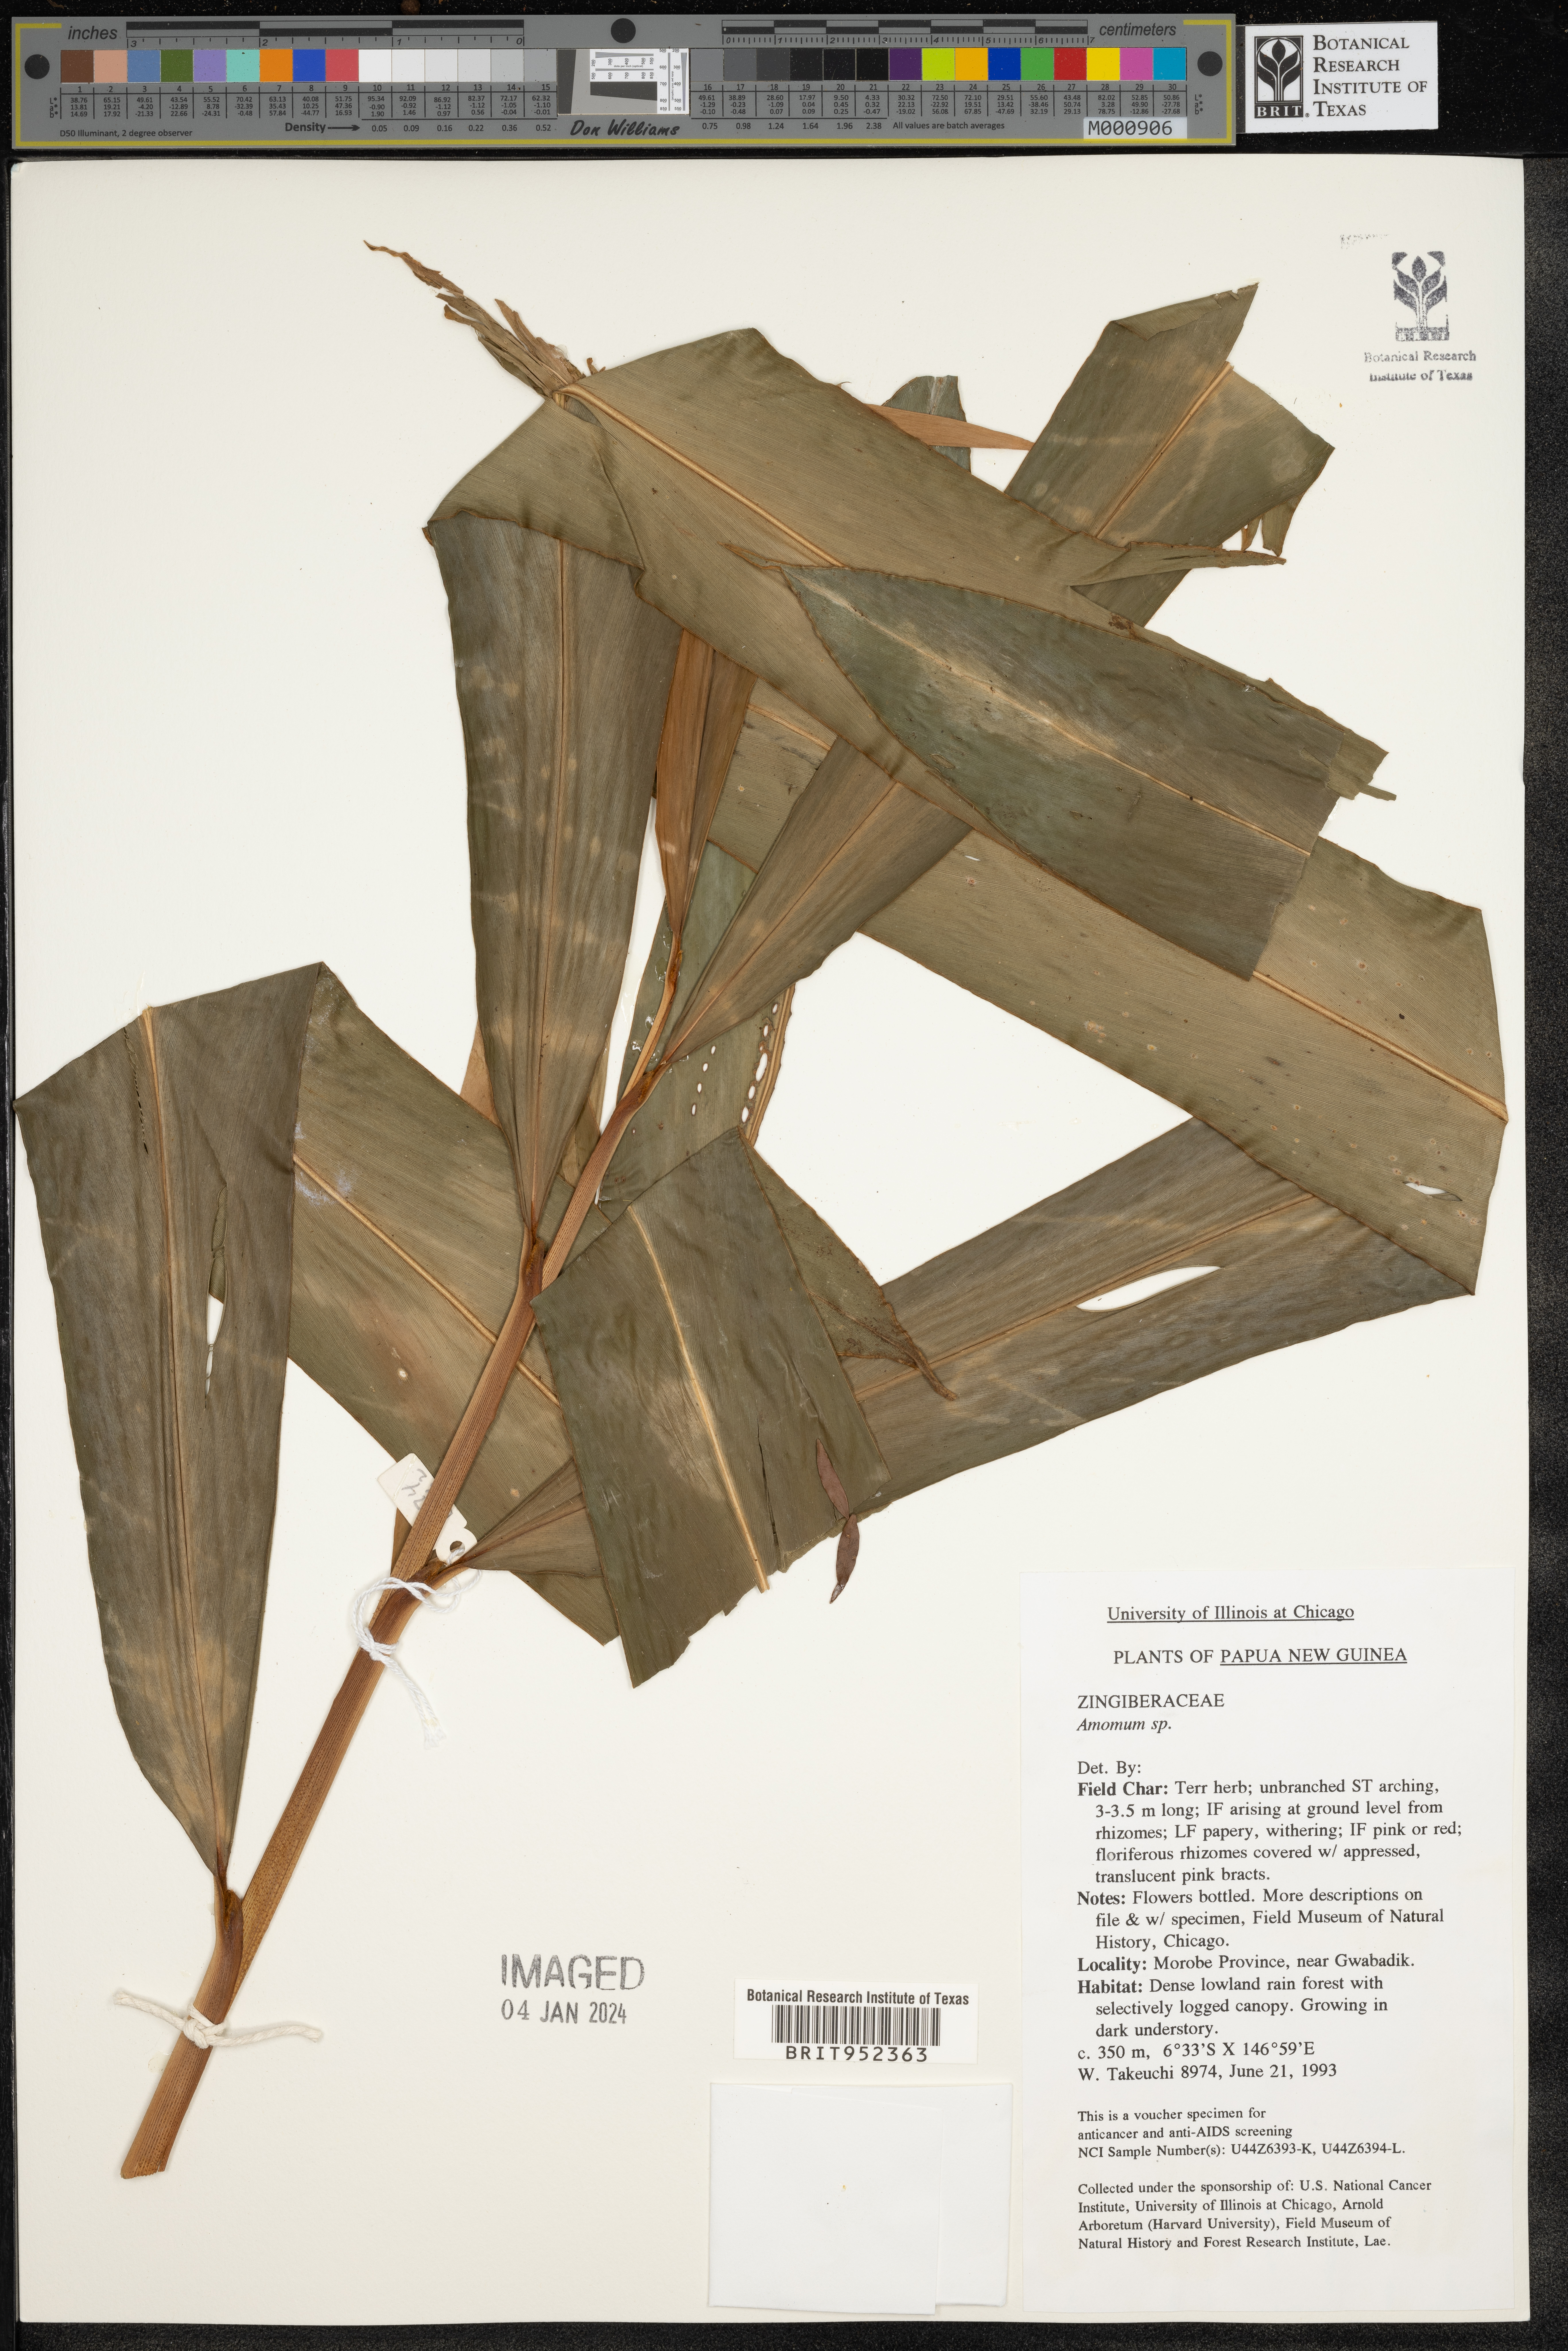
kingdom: Plantae
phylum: Tracheophyta
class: Liliopsida
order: Zingiberales
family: Zingiberaceae
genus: Amomum
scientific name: Amomum
